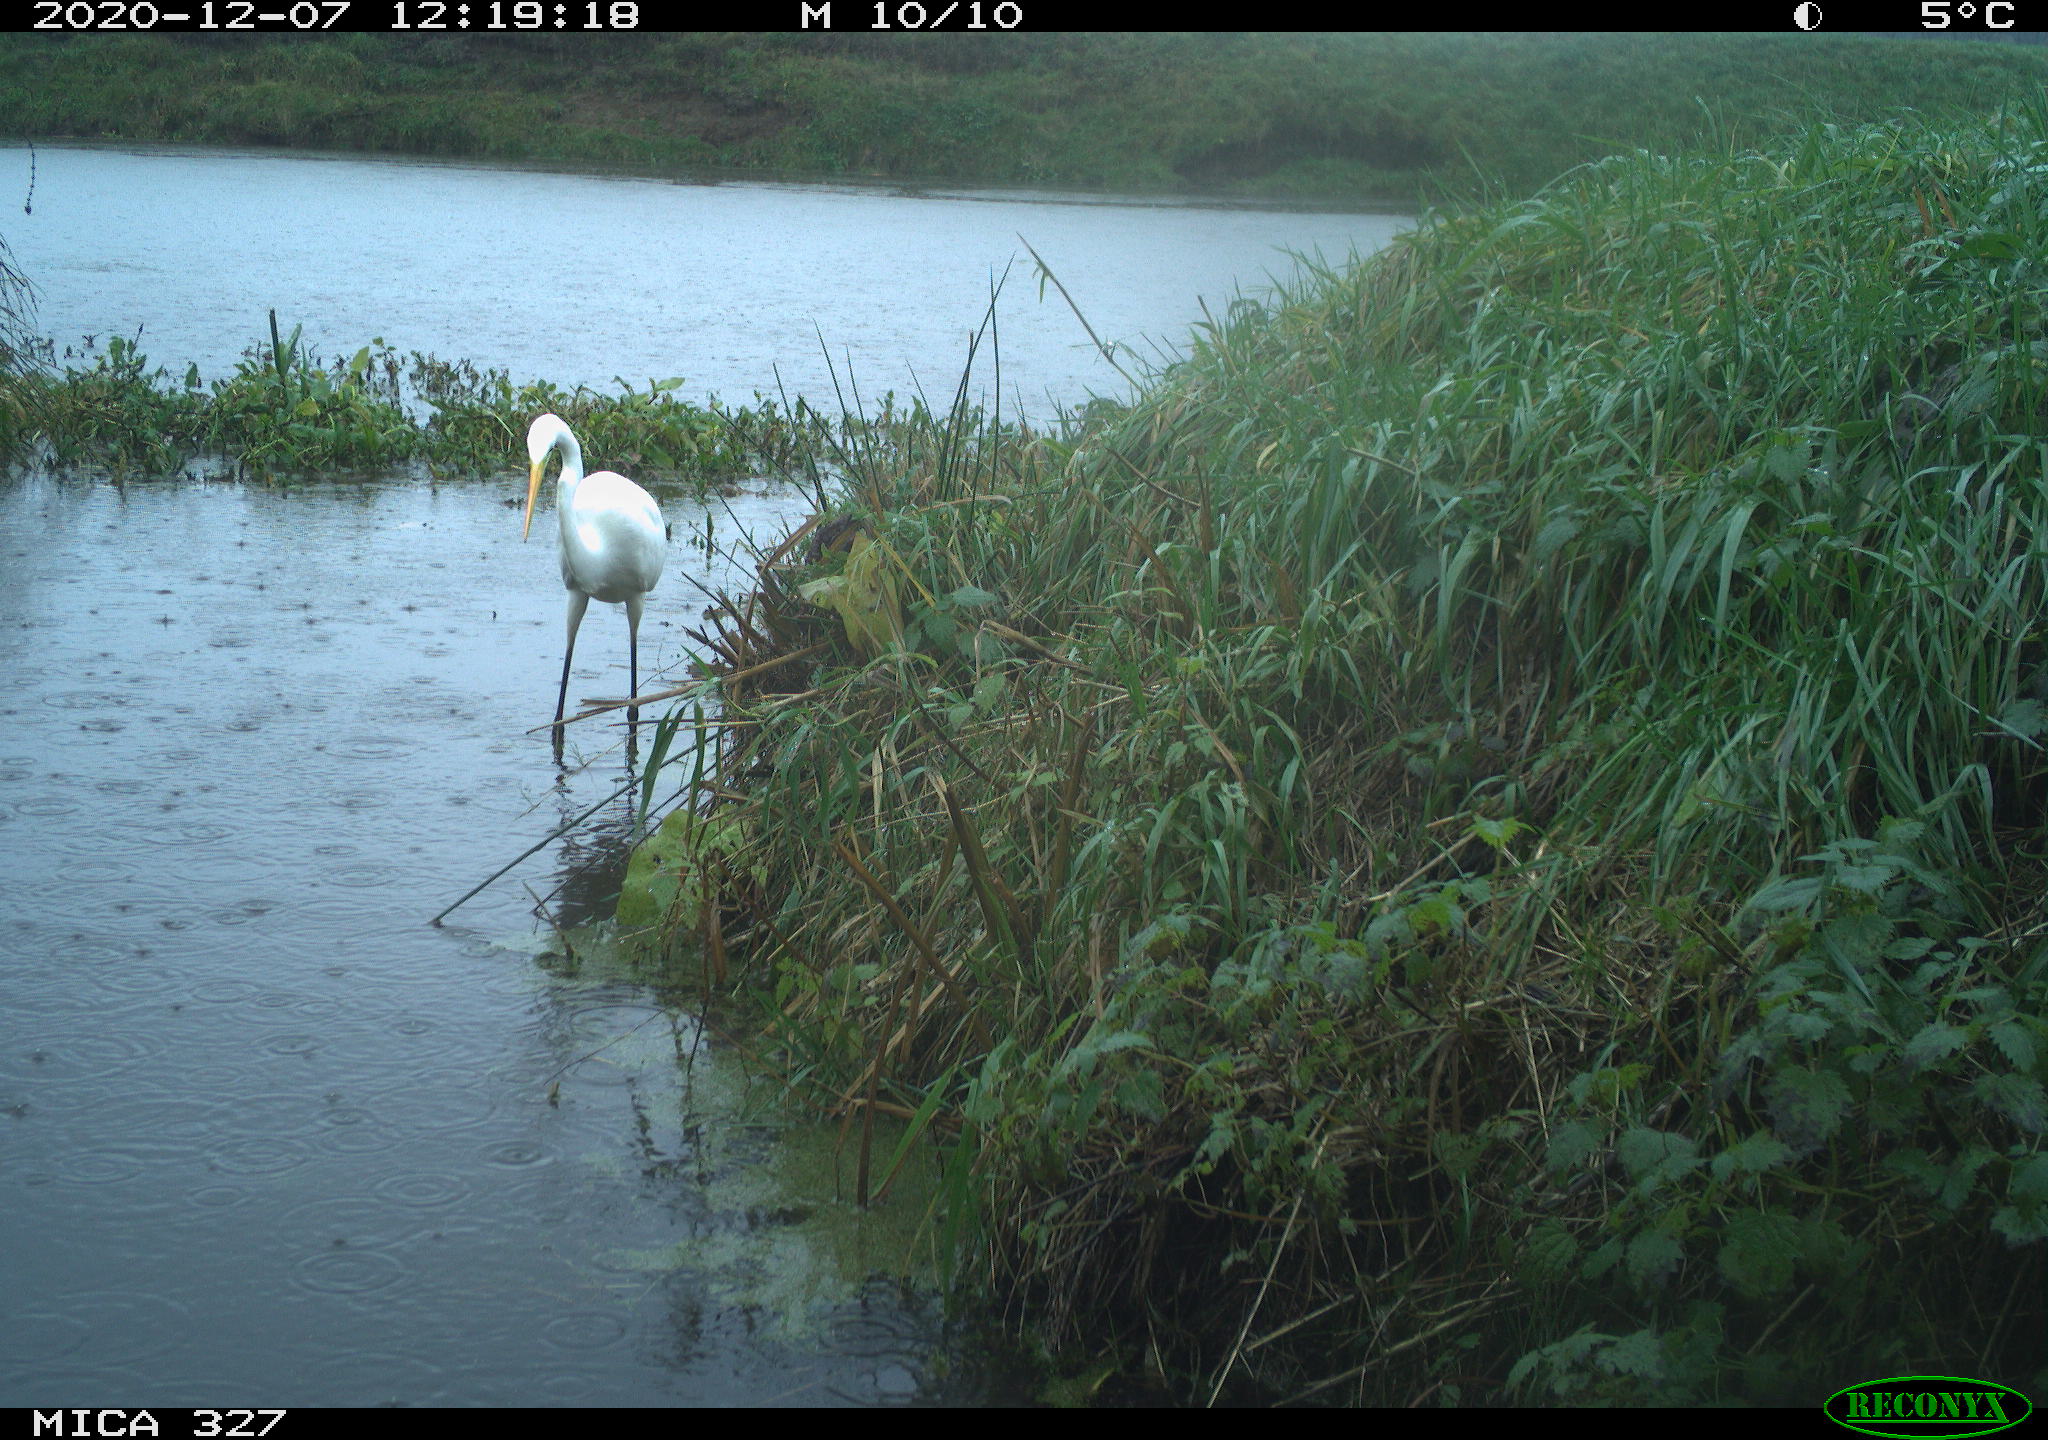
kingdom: Animalia
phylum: Chordata
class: Aves
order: Pelecaniformes
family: Ardeidae
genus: Ardea
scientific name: Ardea alba
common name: Great egret
